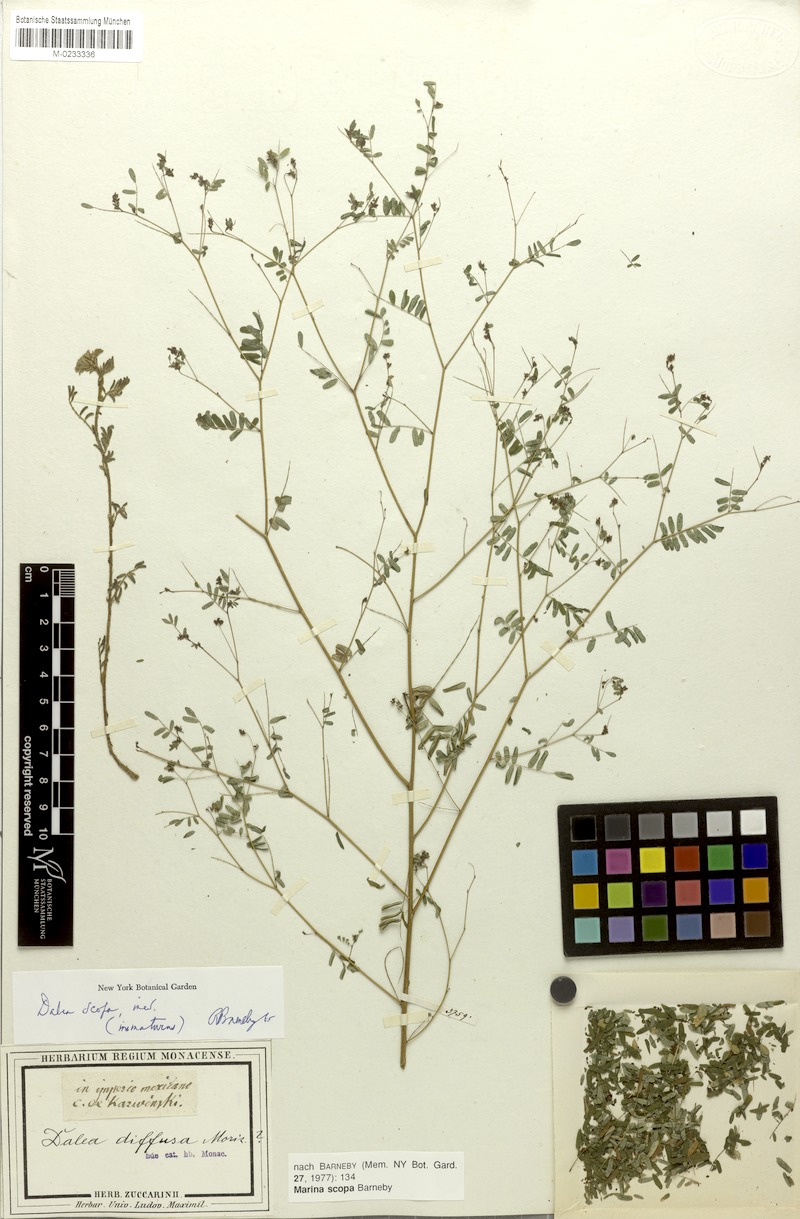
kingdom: Plantae
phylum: Tracheophyta
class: Magnoliopsida
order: Fabales
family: Fabaceae
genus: Marina
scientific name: Marina scopa
